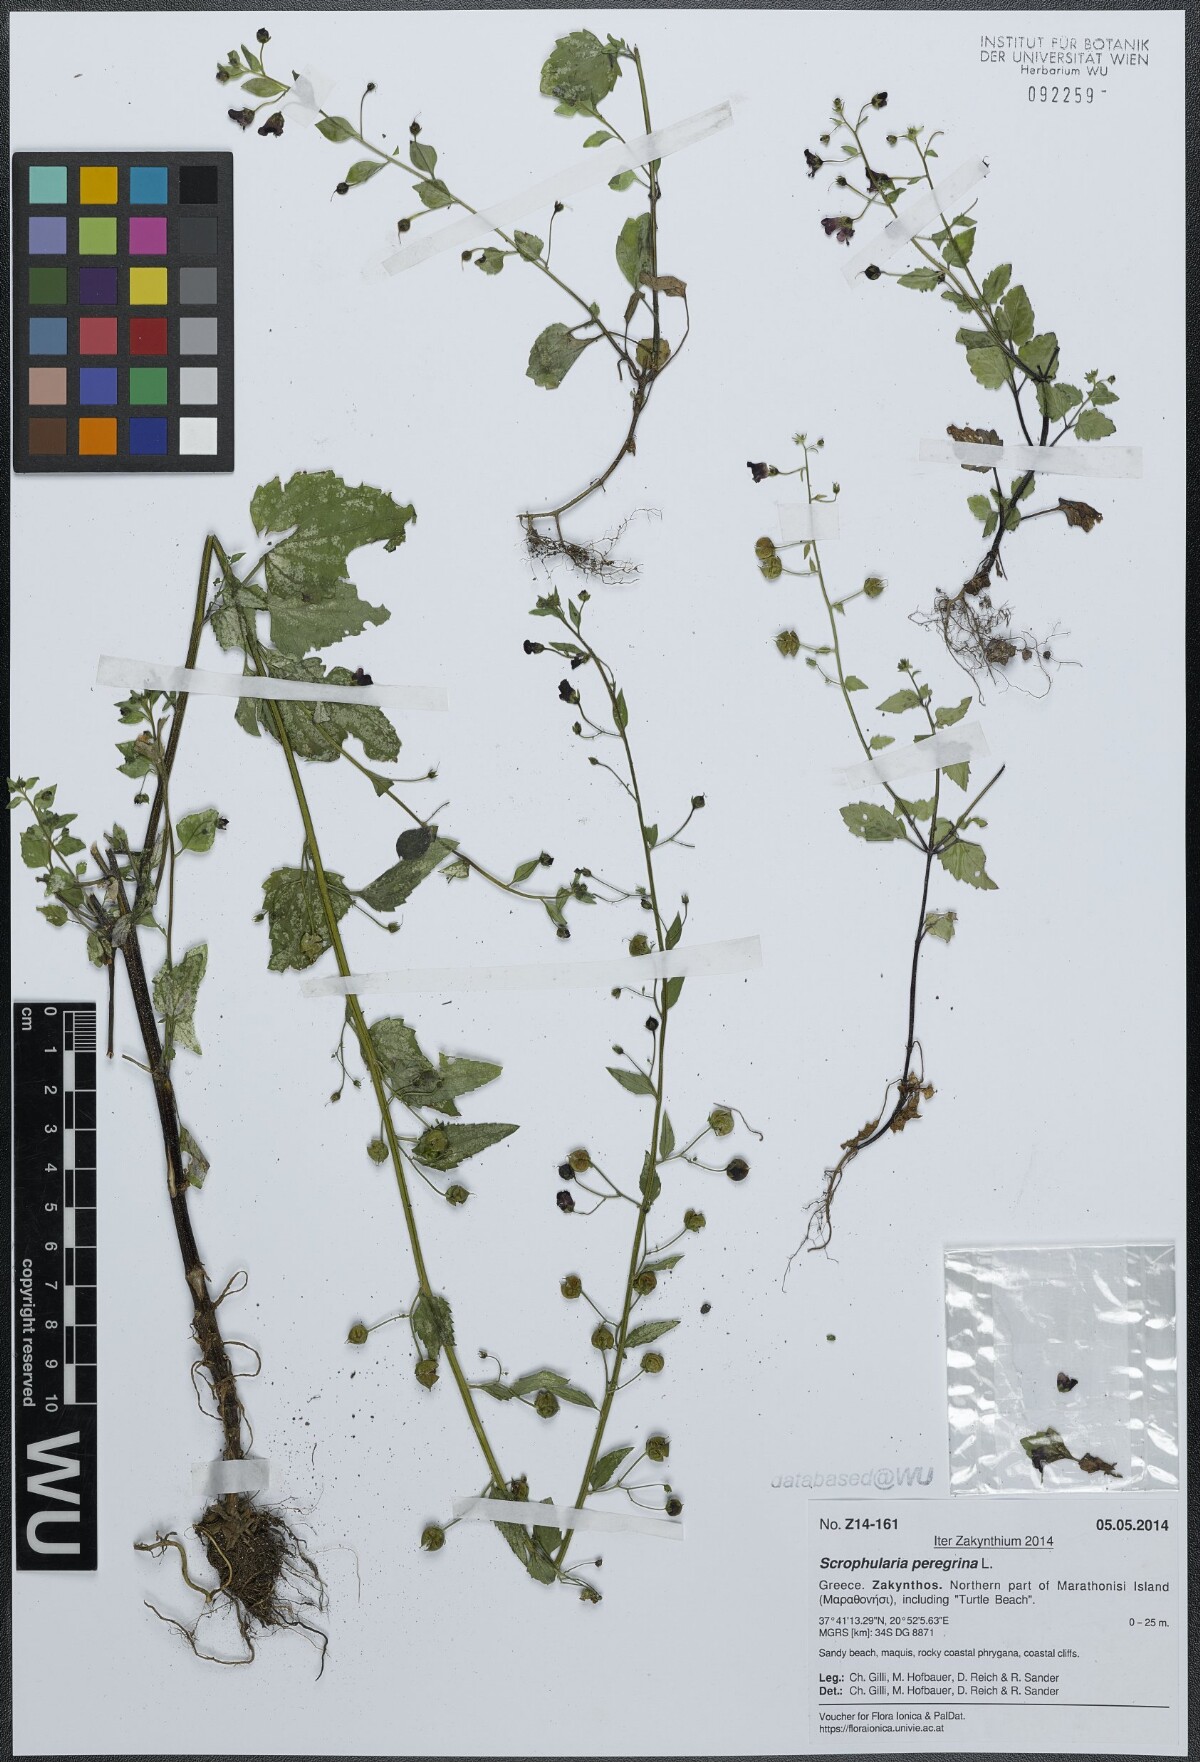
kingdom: Plantae
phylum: Tracheophyta
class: Magnoliopsida
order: Lamiales
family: Scrophulariaceae
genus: Scrophularia
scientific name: Scrophularia peregrina
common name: Mediterranean figwort
